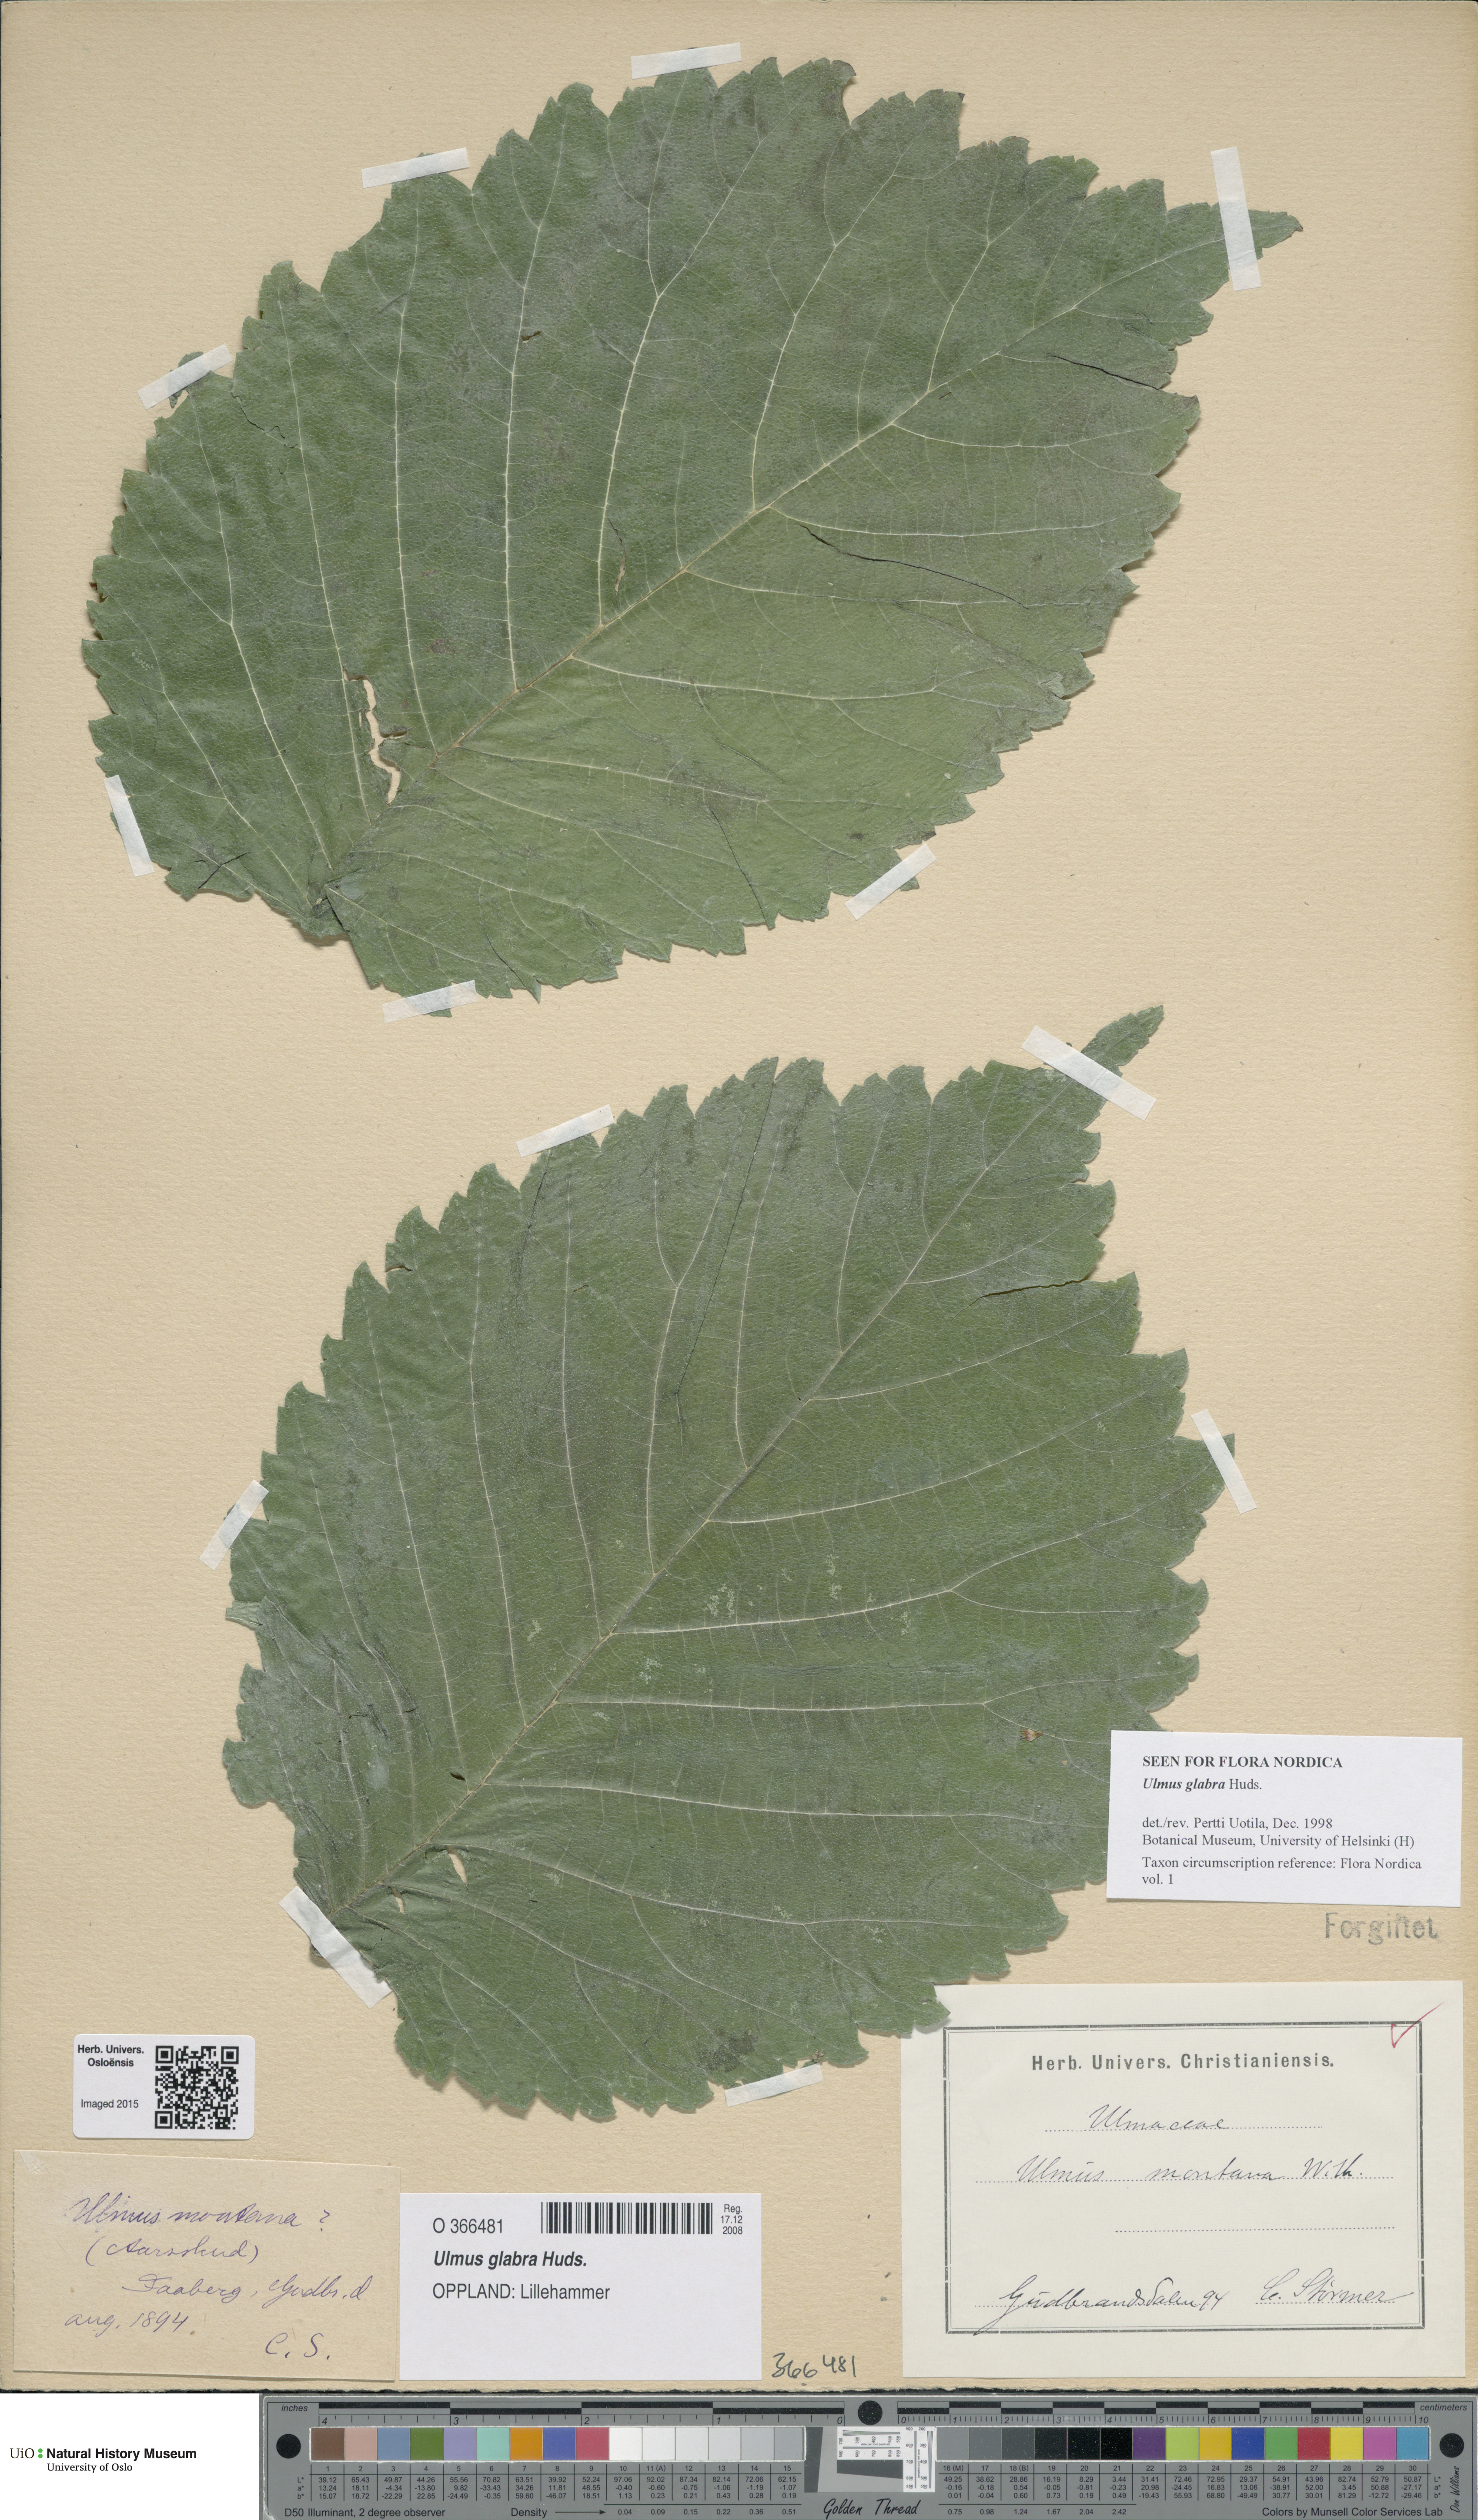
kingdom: Plantae
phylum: Tracheophyta
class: Magnoliopsida
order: Rosales
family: Ulmaceae
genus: Ulmus
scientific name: Ulmus glabra
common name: Wych elm
